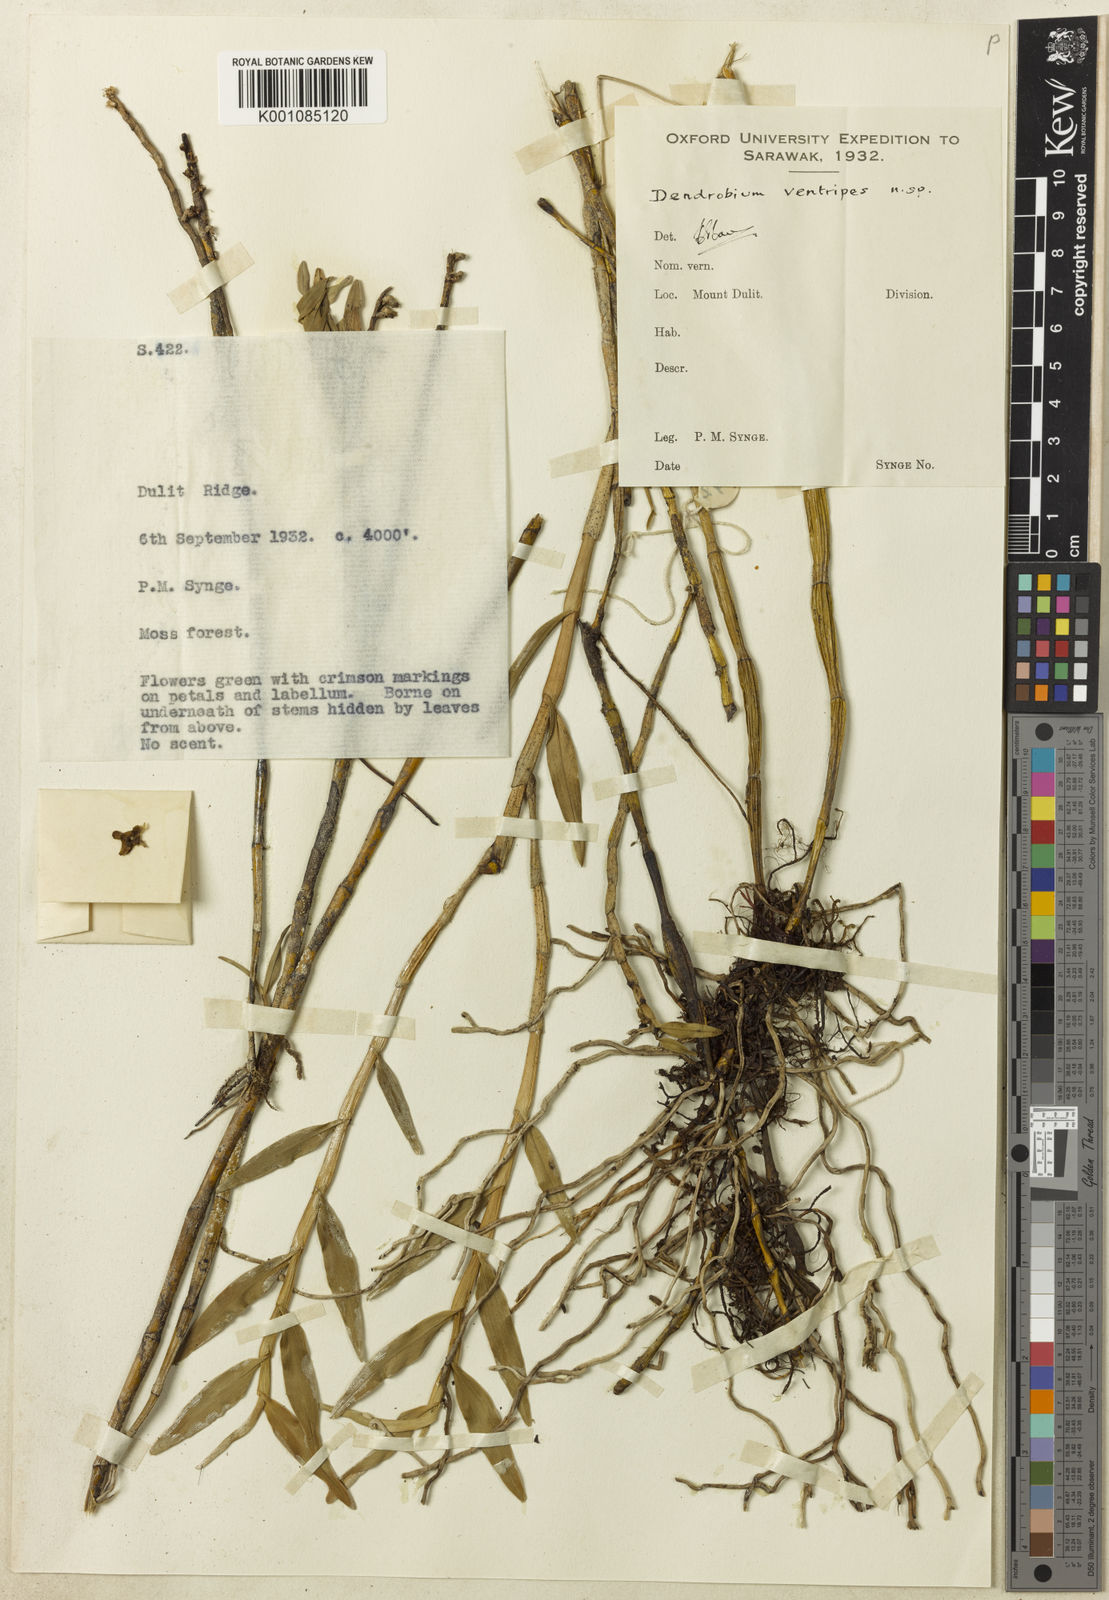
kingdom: Plantae
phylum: Tracheophyta
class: Liliopsida
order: Asparagales
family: Orchidaceae
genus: Dendrobium
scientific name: Dendrobium singulare
